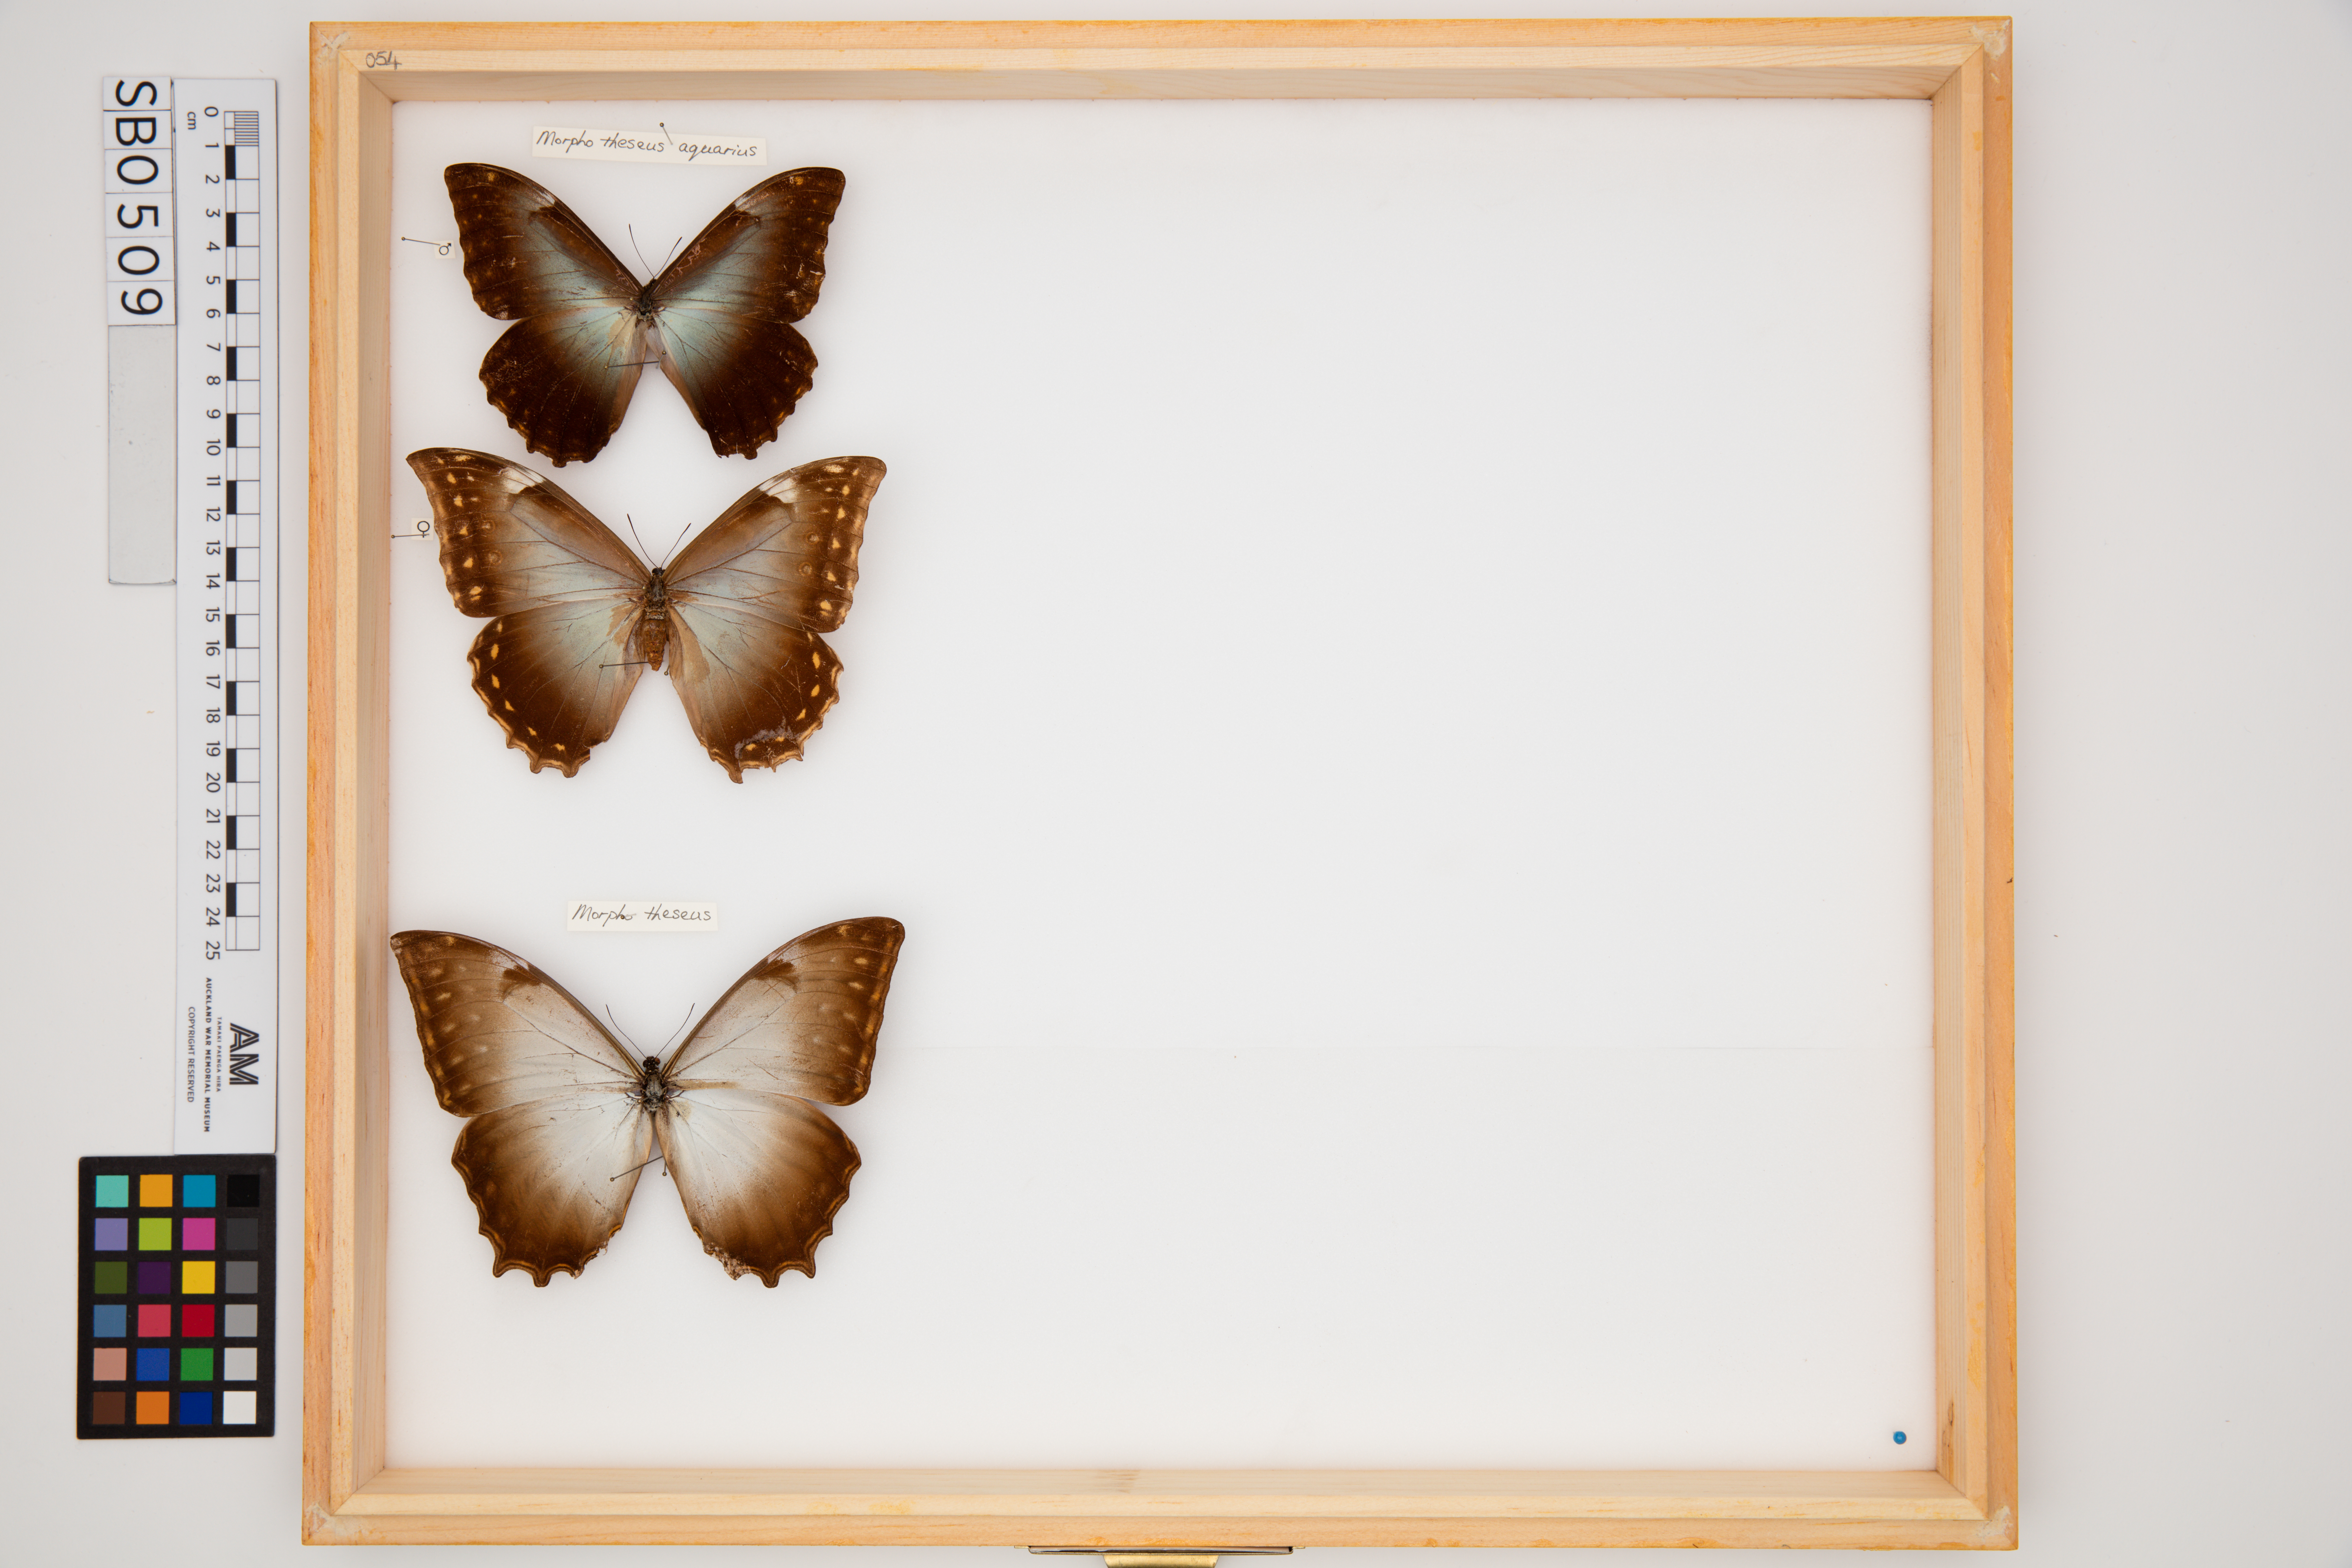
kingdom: Animalia
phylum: Arthropoda
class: Insecta
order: Lepidoptera
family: Nymphalidae
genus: Morpho
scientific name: Morpho theseus
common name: Stub-tailed morpho
